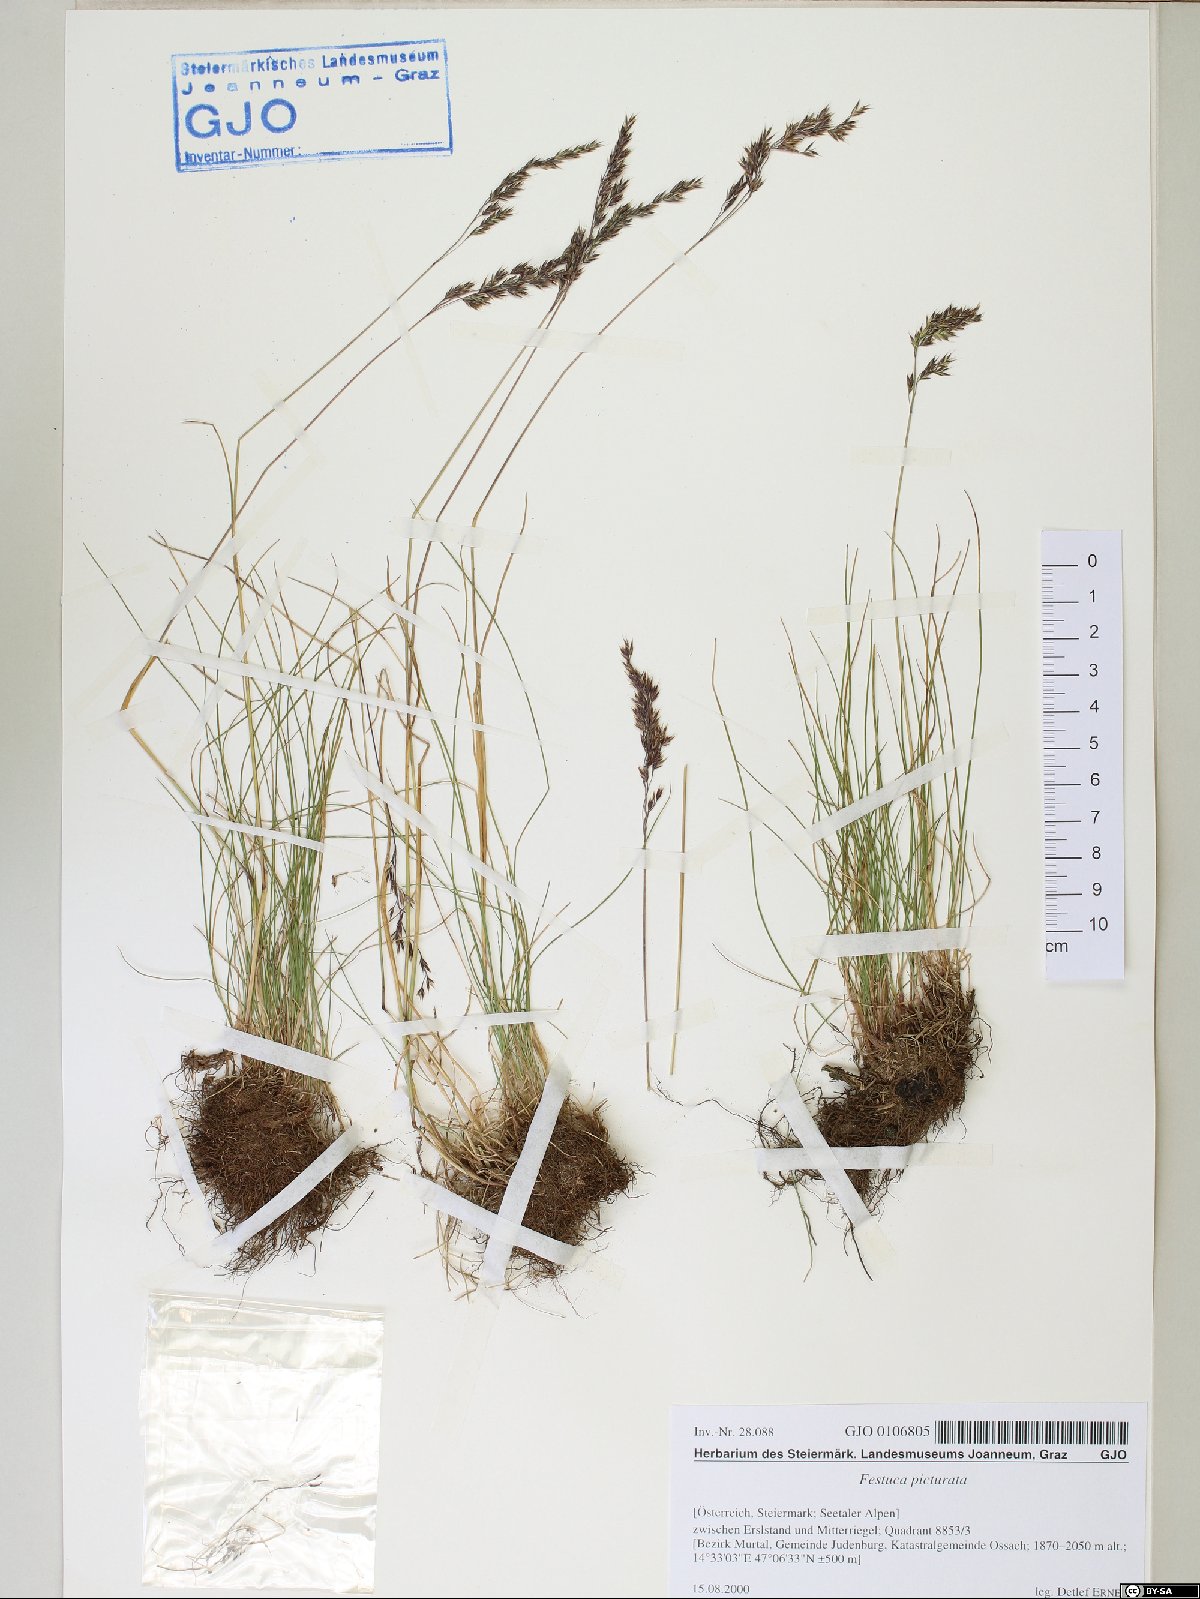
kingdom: Plantae
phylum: Tracheophyta
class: Liliopsida
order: Poales
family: Poaceae
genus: Festuca
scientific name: Festuca picturata
